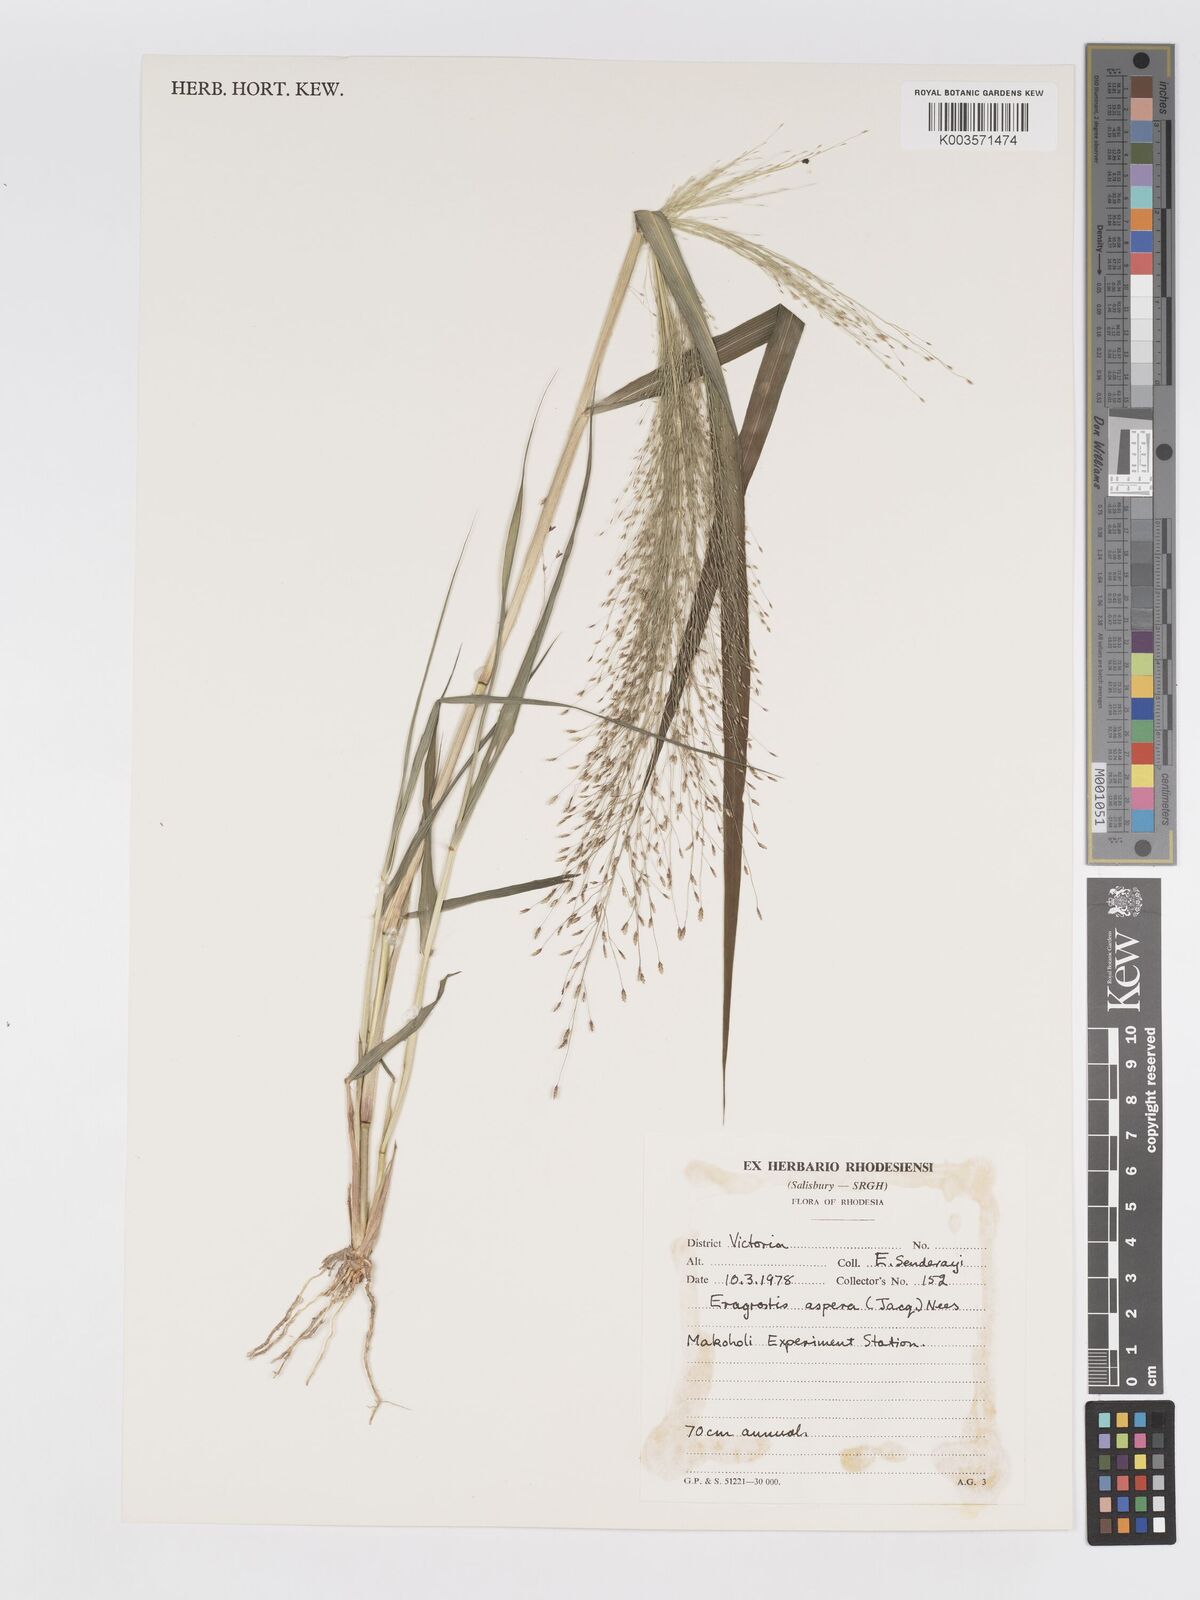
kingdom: Plantae
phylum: Tracheophyta
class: Liliopsida
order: Poales
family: Poaceae
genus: Eragrostis
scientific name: Eragrostis aspera
